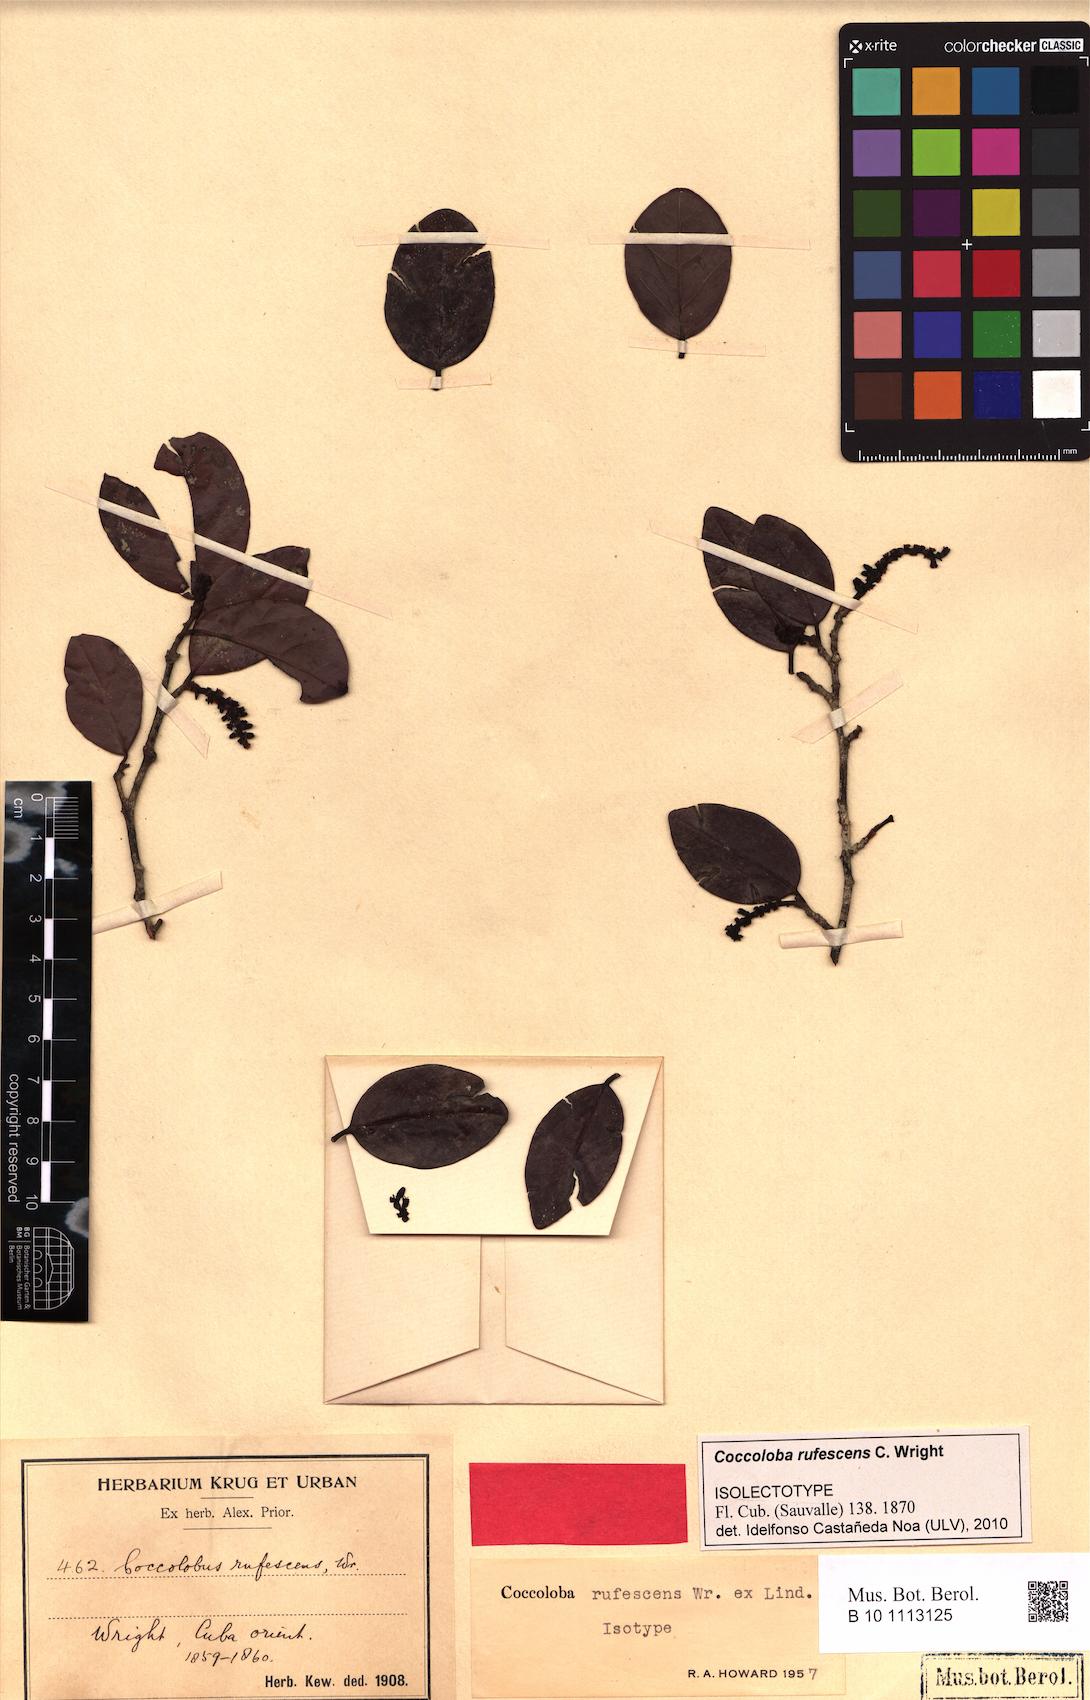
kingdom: Plantae
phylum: Tracheophyta
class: Magnoliopsida
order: Caryophyllales
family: Polygonaceae
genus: Coccoloba
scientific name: Coccoloba rufescens
